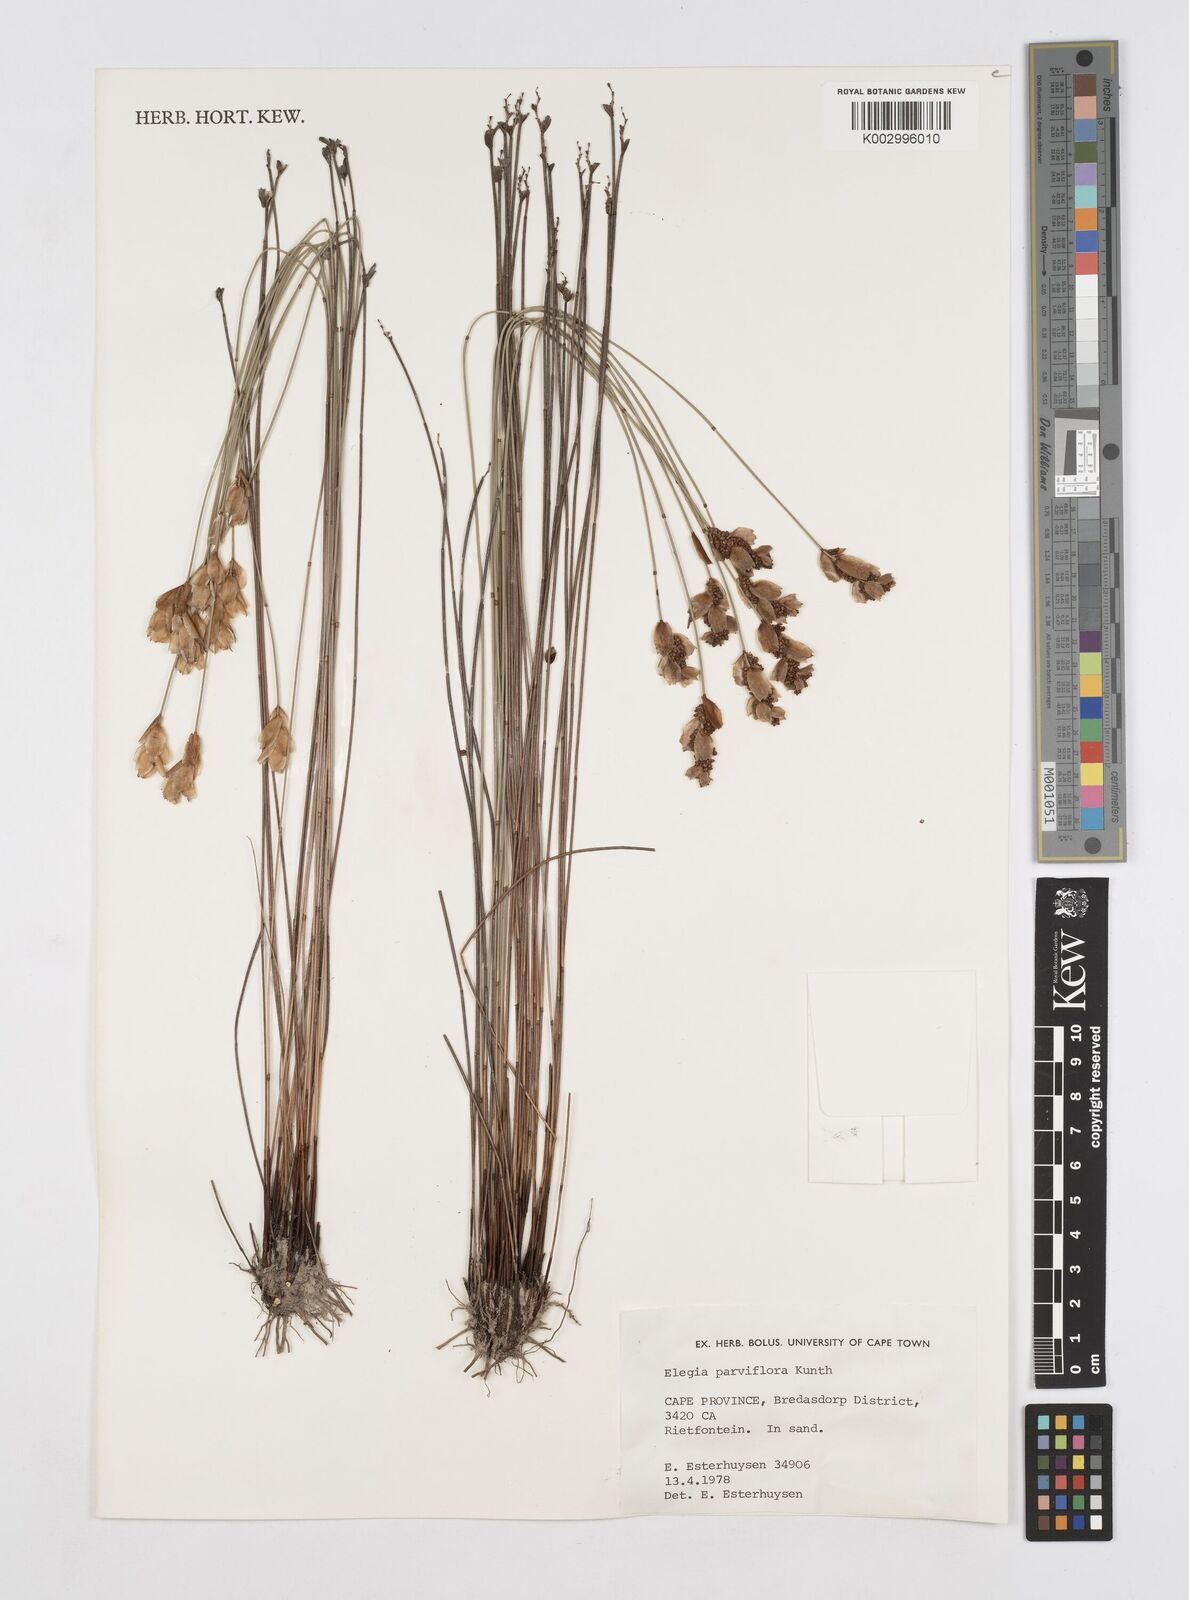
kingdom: Plantae
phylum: Tracheophyta
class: Liliopsida
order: Poales
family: Restionaceae
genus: Cannomois
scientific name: Cannomois parviflora
